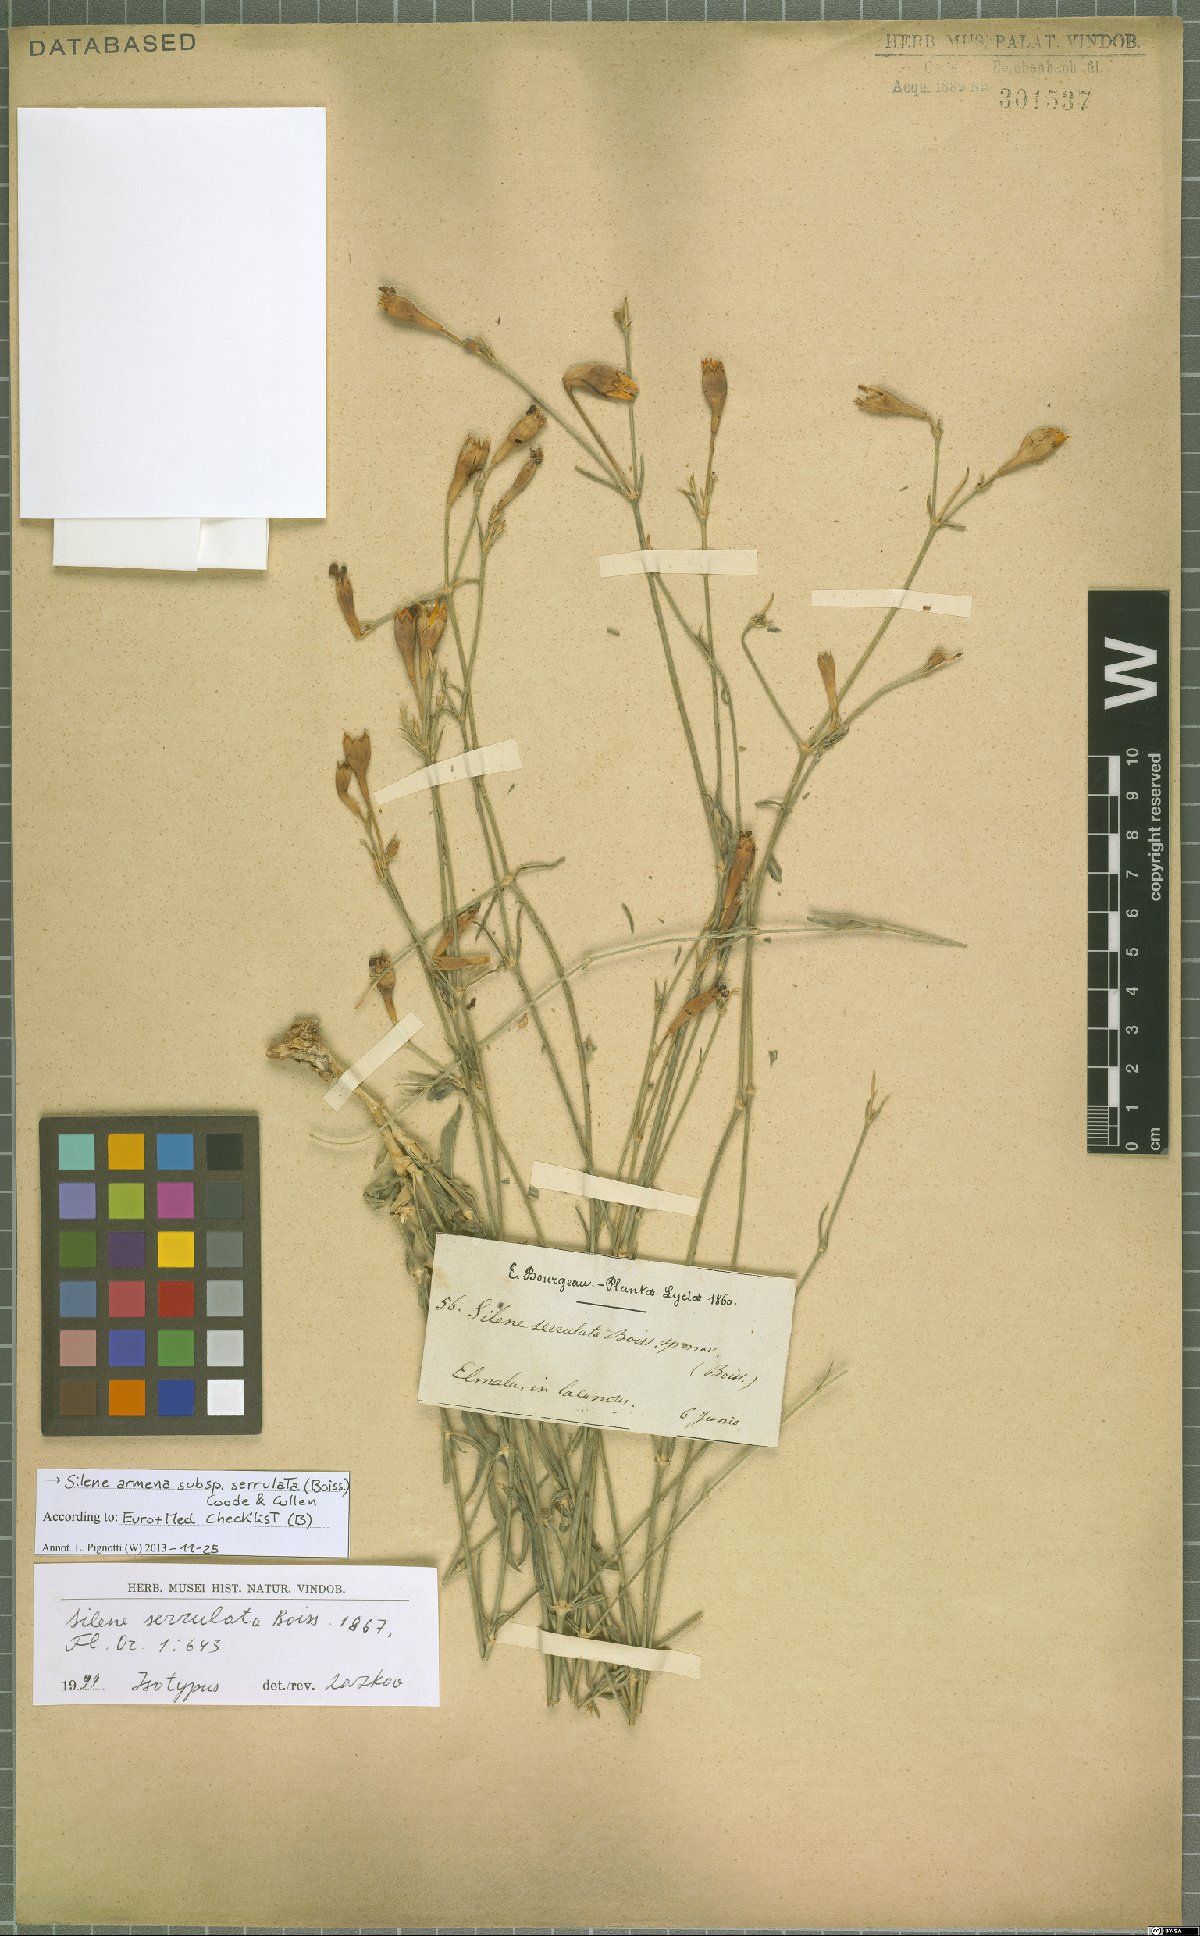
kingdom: Plantae
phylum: Tracheophyta
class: Magnoliopsida
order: Caryophyllales
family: Caryophyllaceae
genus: Silene
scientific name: Silene armena
